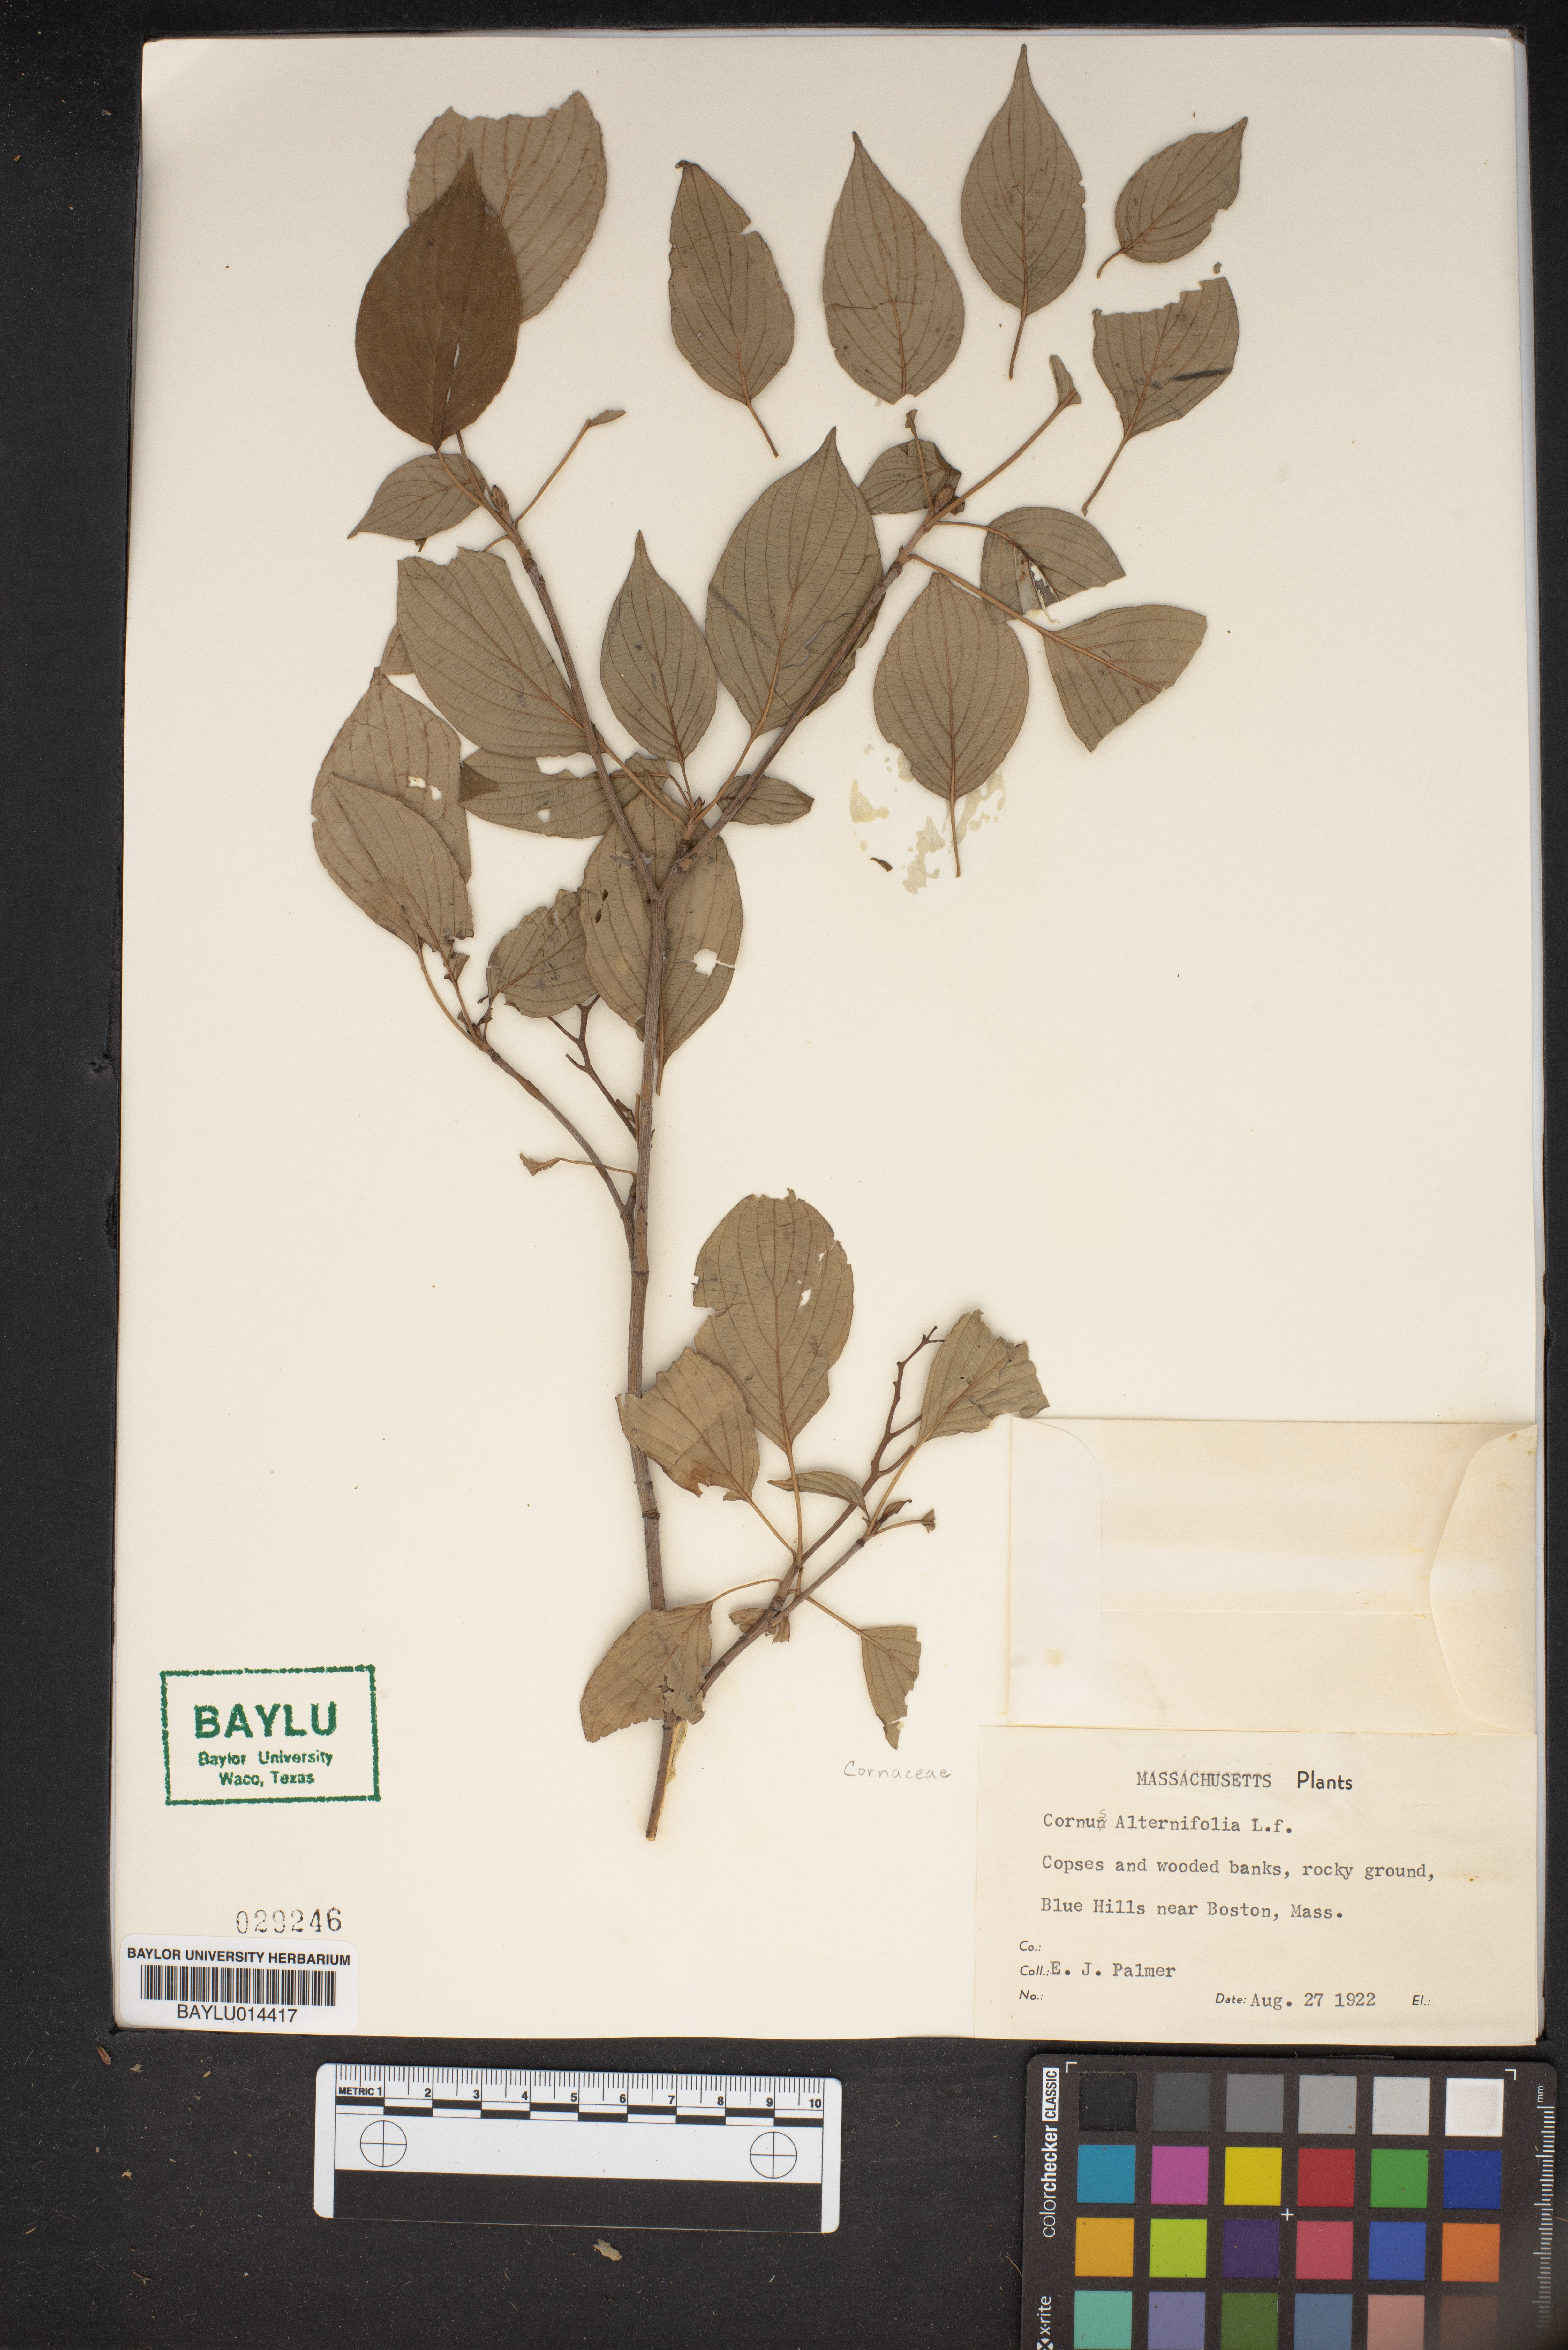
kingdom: Plantae
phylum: Tracheophyta
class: Magnoliopsida
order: Cornales
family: Cornaceae
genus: Cornus
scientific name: Cornus alternifolia
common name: Pagoda dogwood
